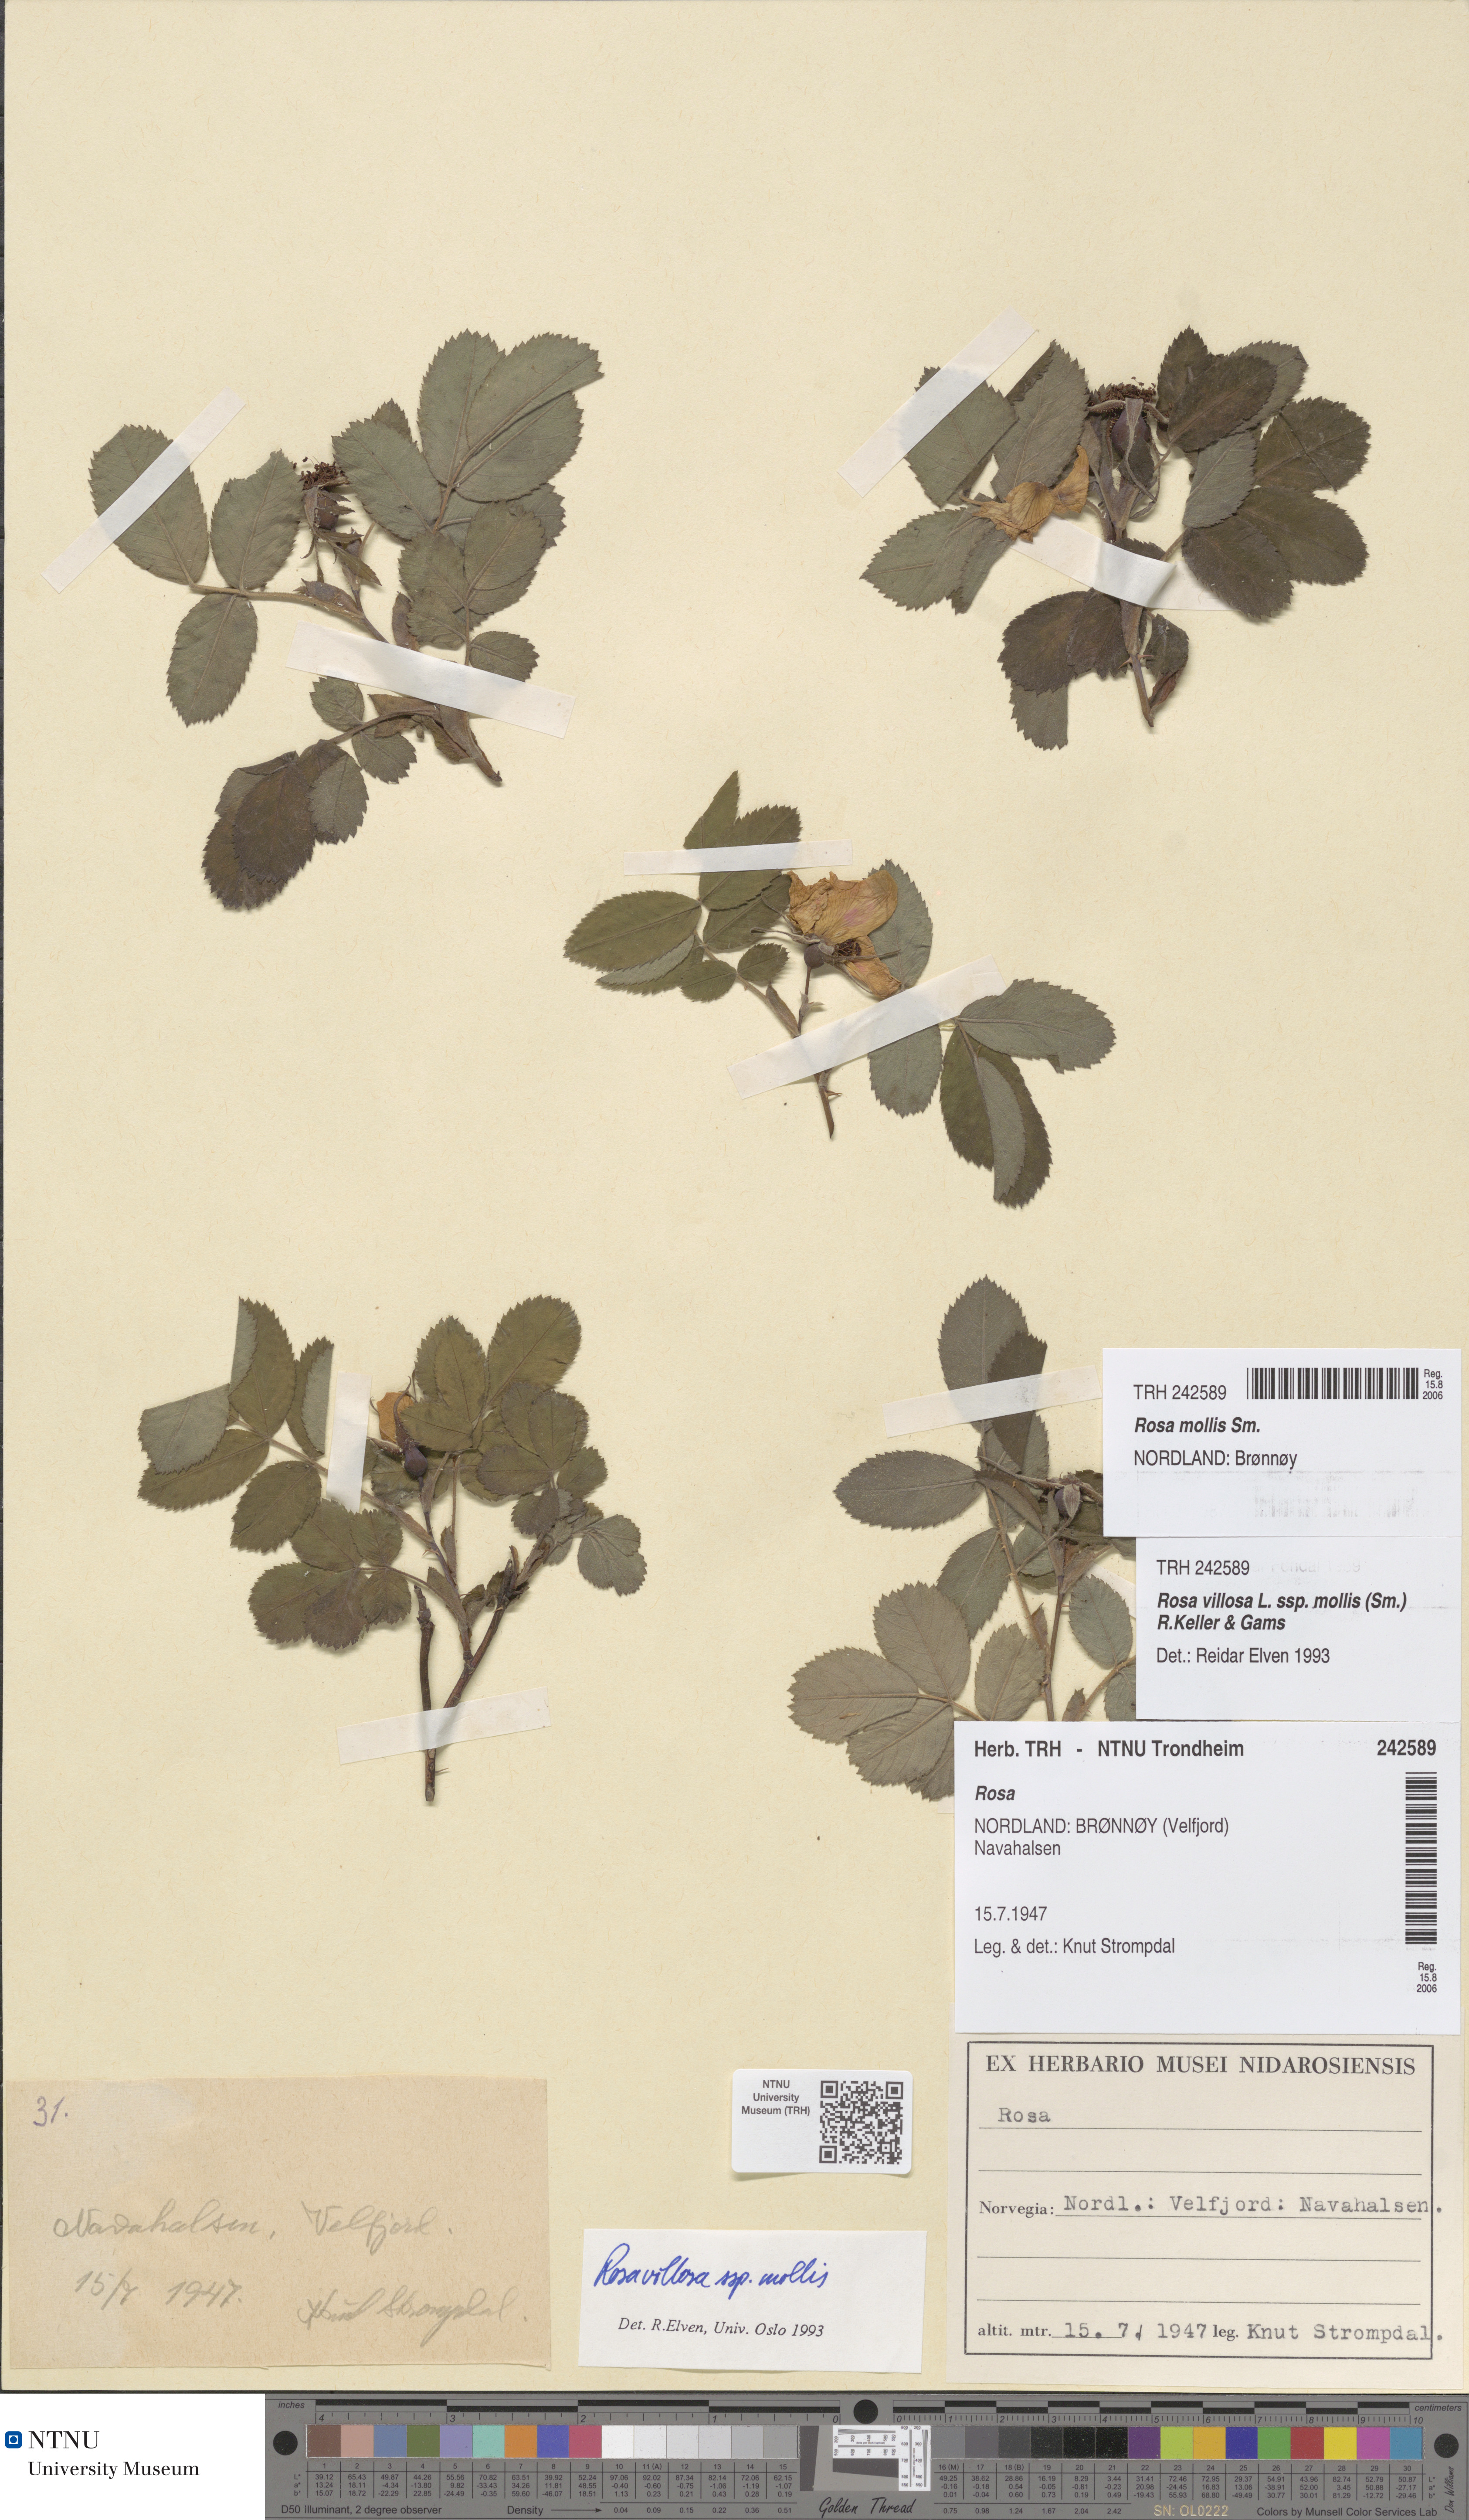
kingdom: Plantae
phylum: Tracheophyta
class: Magnoliopsida
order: Rosales
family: Rosaceae
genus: Rosa
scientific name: Rosa mollis
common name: Rose
